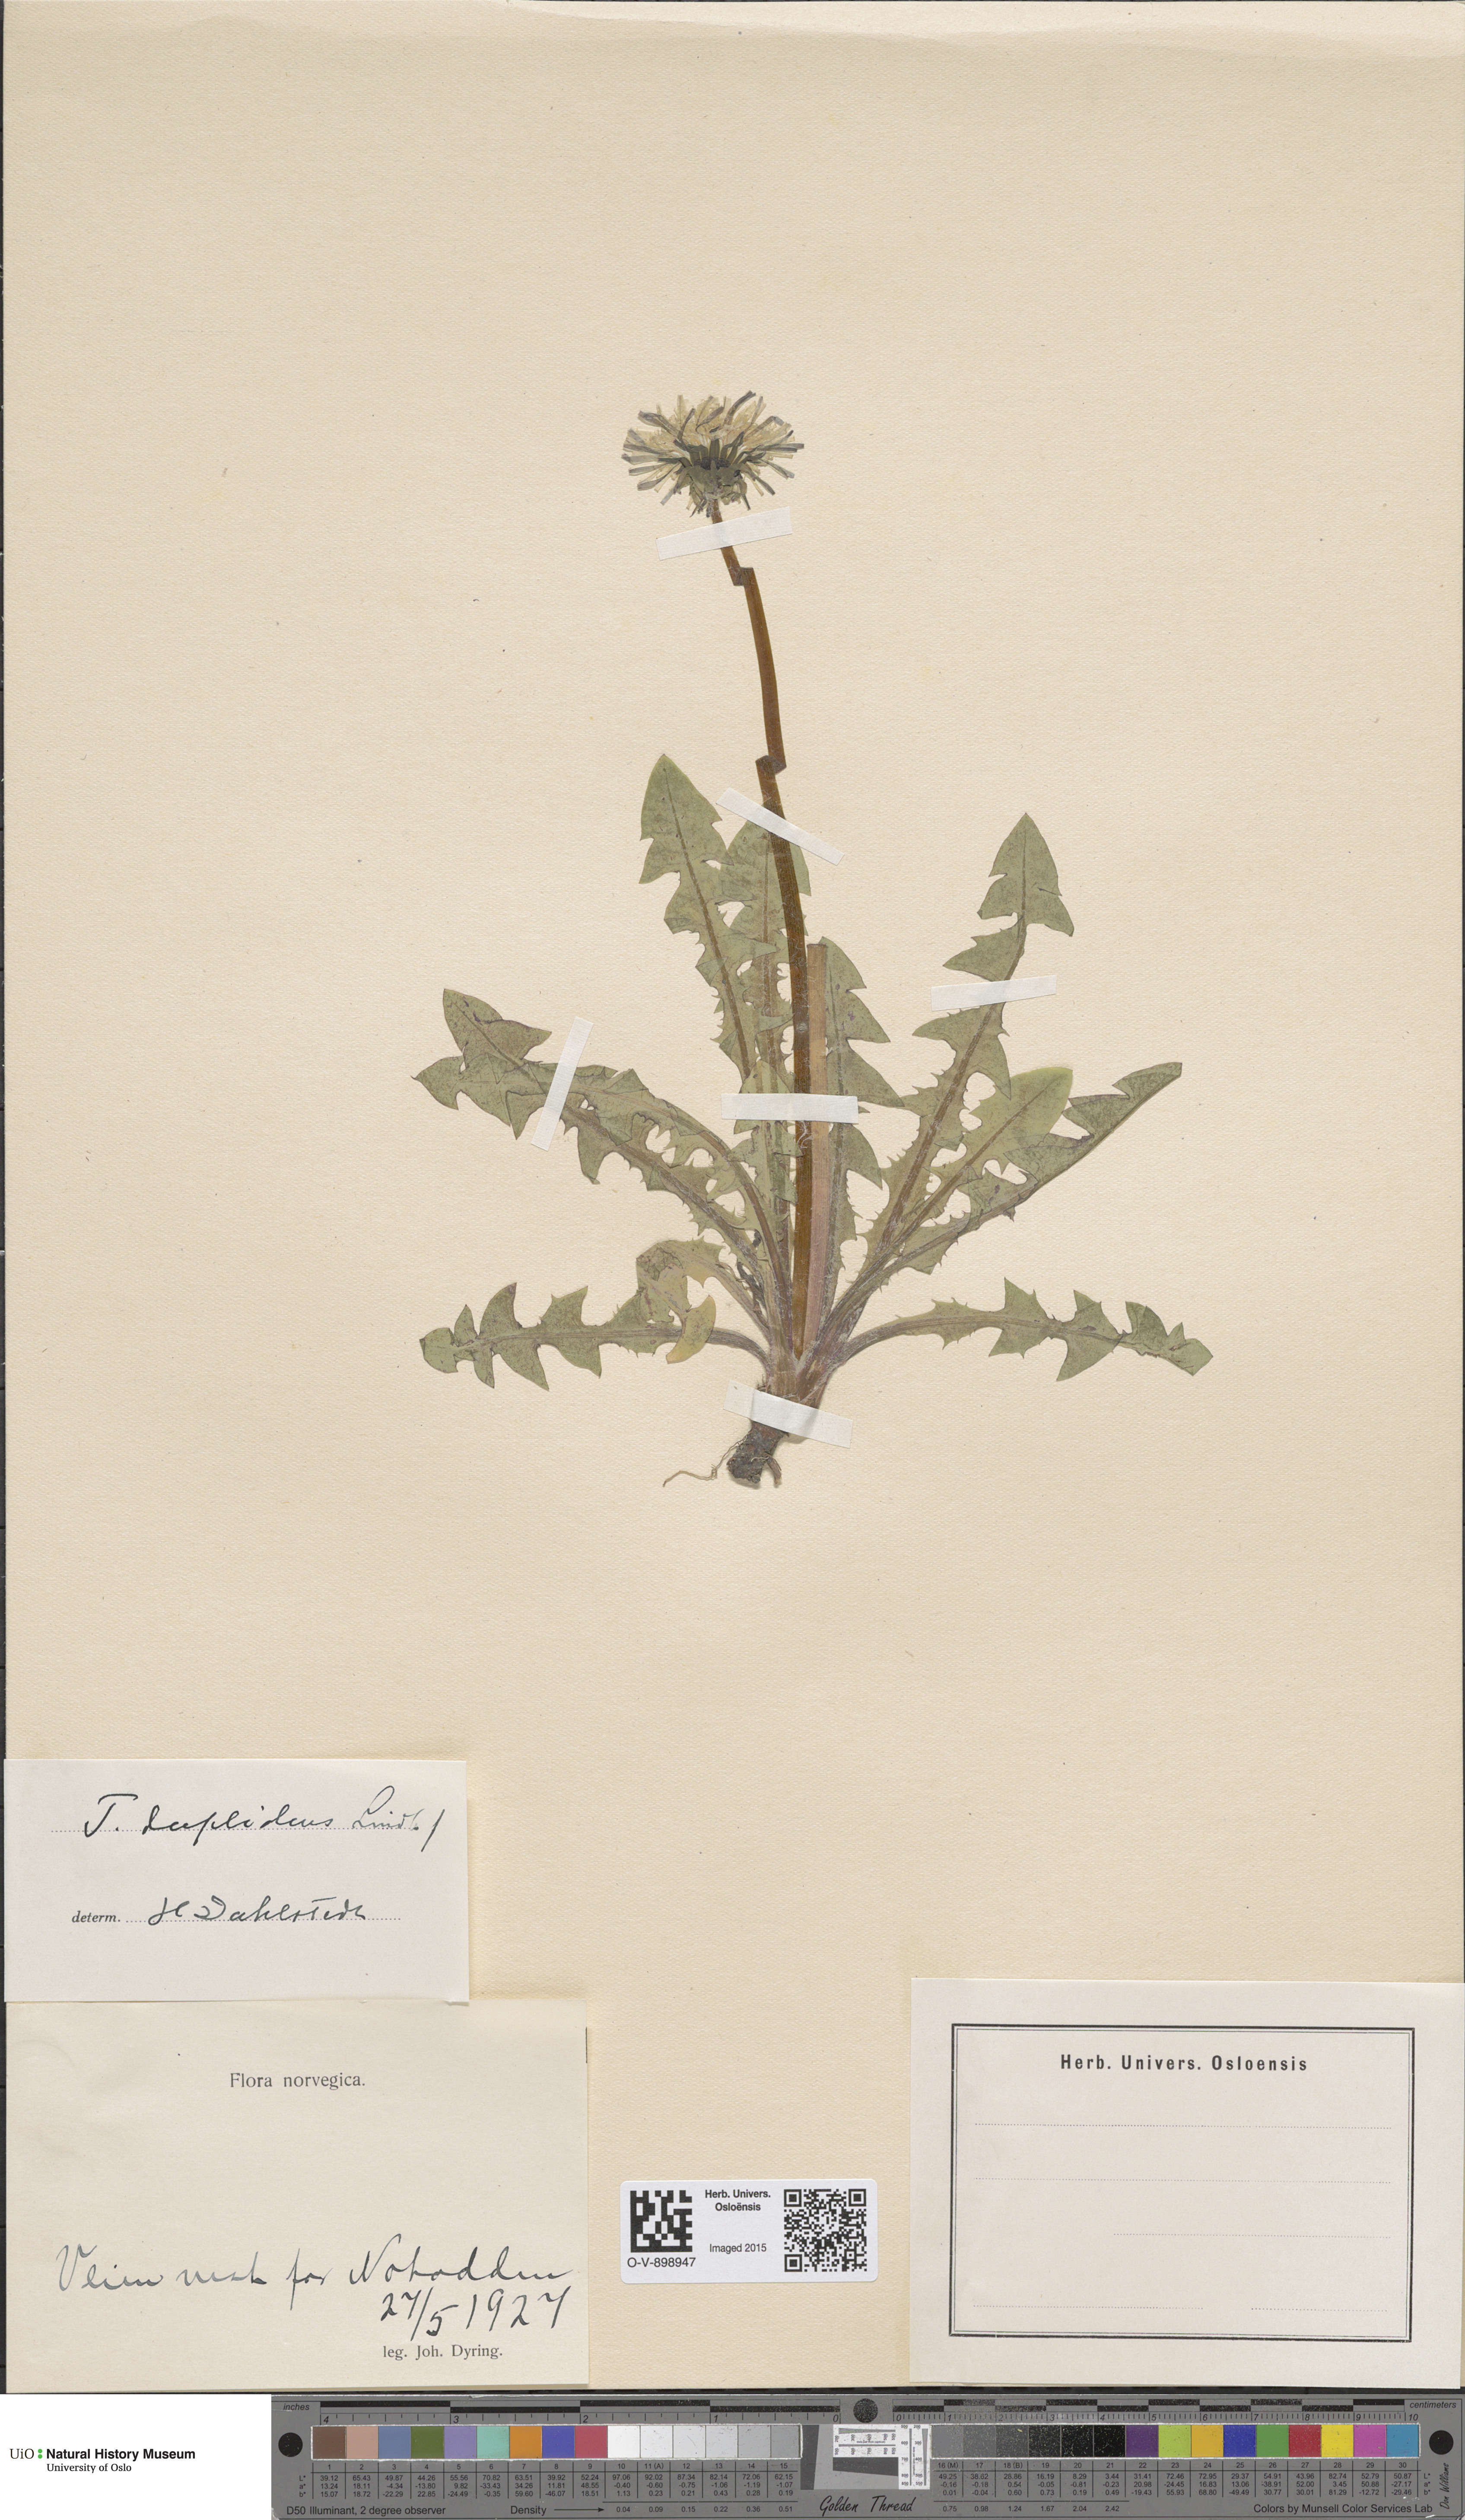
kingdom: Plantae
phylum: Tracheophyta
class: Magnoliopsida
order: Asterales
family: Asteraceae
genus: Taraxacum
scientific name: Taraxacum ostenfeldii
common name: Ostenfeld's dandelion
